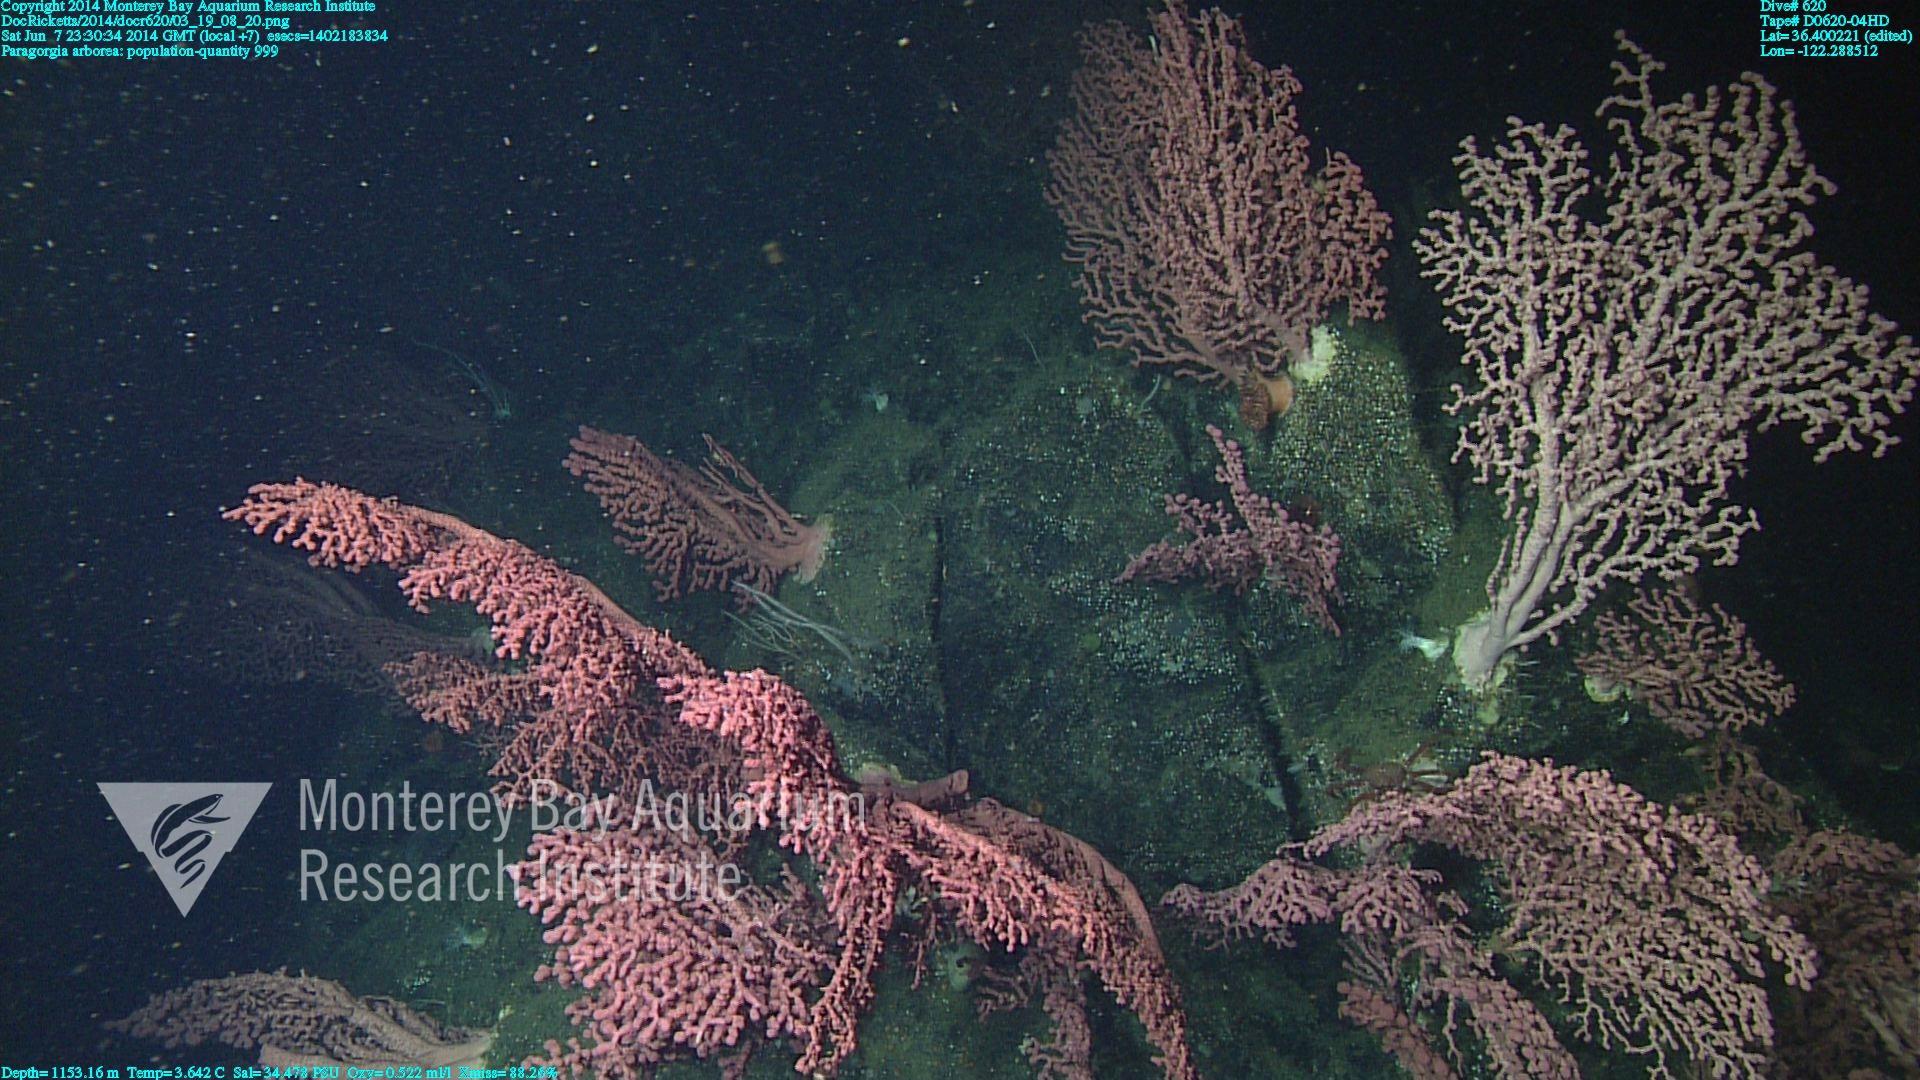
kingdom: Animalia
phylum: Cnidaria
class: Anthozoa
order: Scleralcyonacea
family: Coralliidae
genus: Paragorgia
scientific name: Paragorgia arborea
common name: Bubble gum coral
